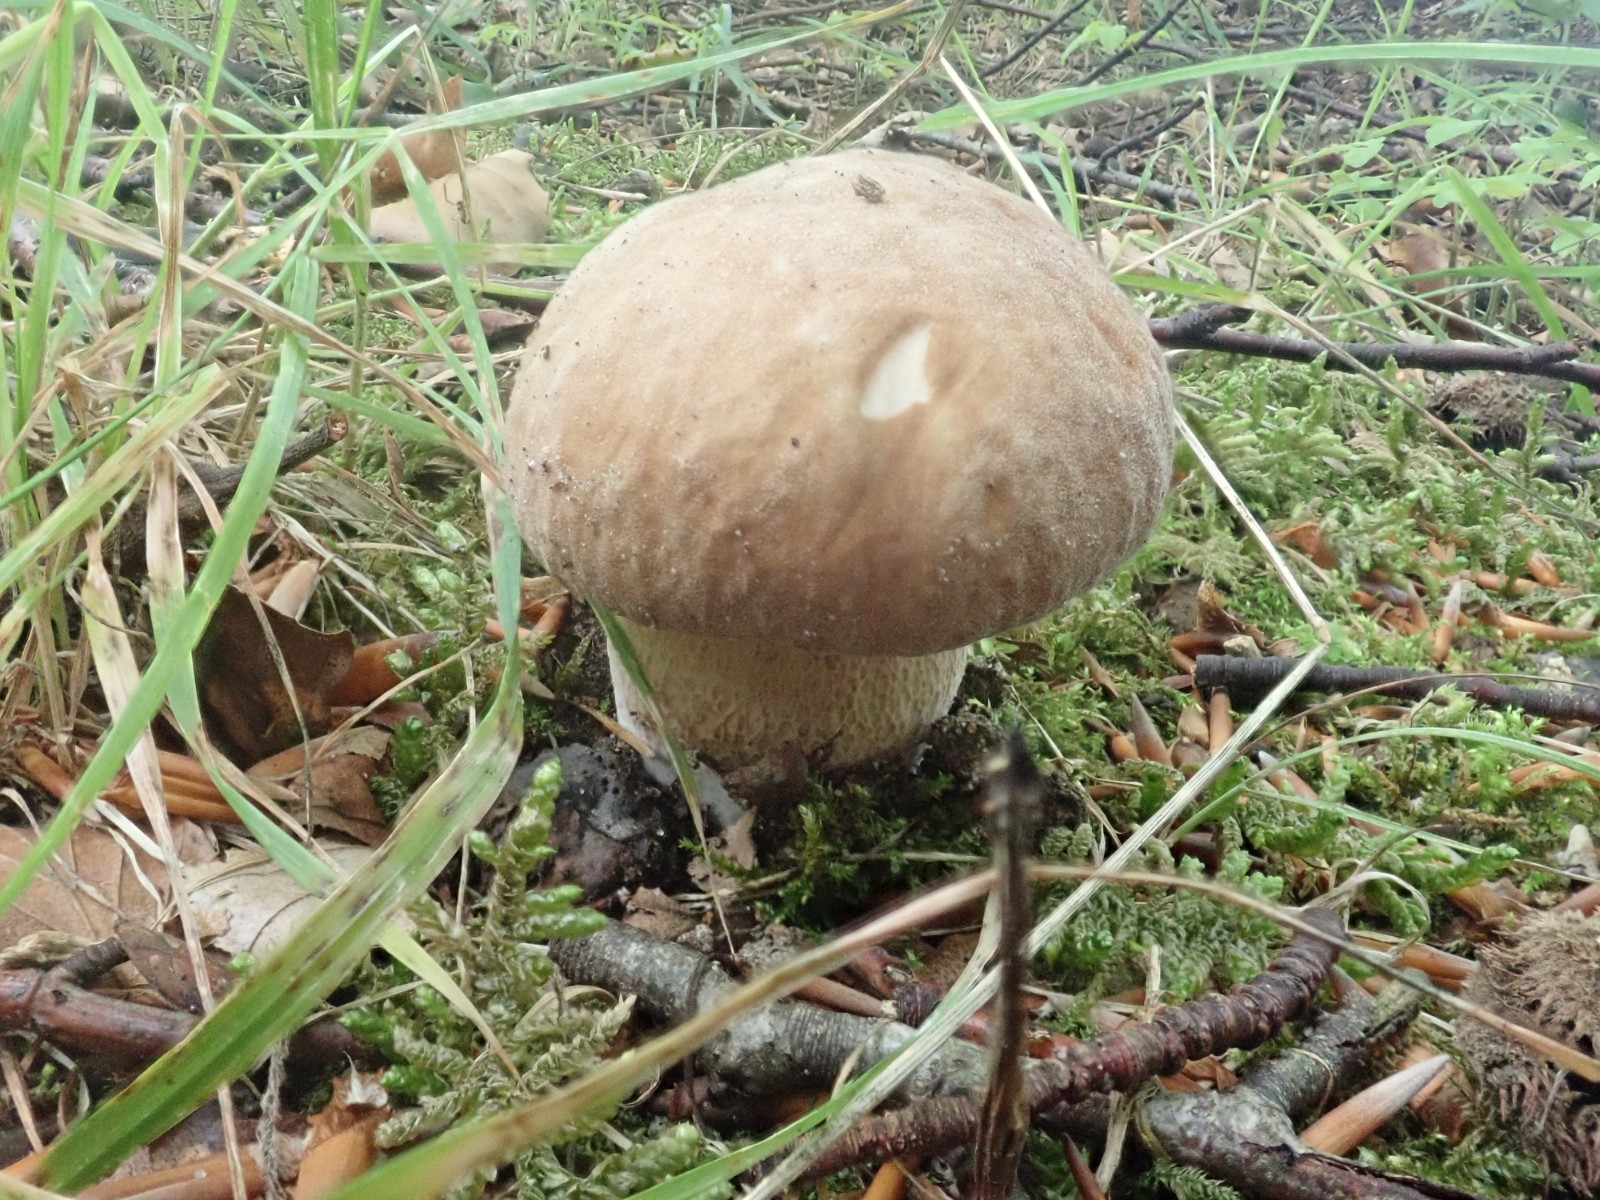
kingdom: Fungi
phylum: Basidiomycota
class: Agaricomycetes
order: Boletales
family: Boletaceae
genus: Boletus
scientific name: Boletus reticulatus
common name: sommer-rørhat
